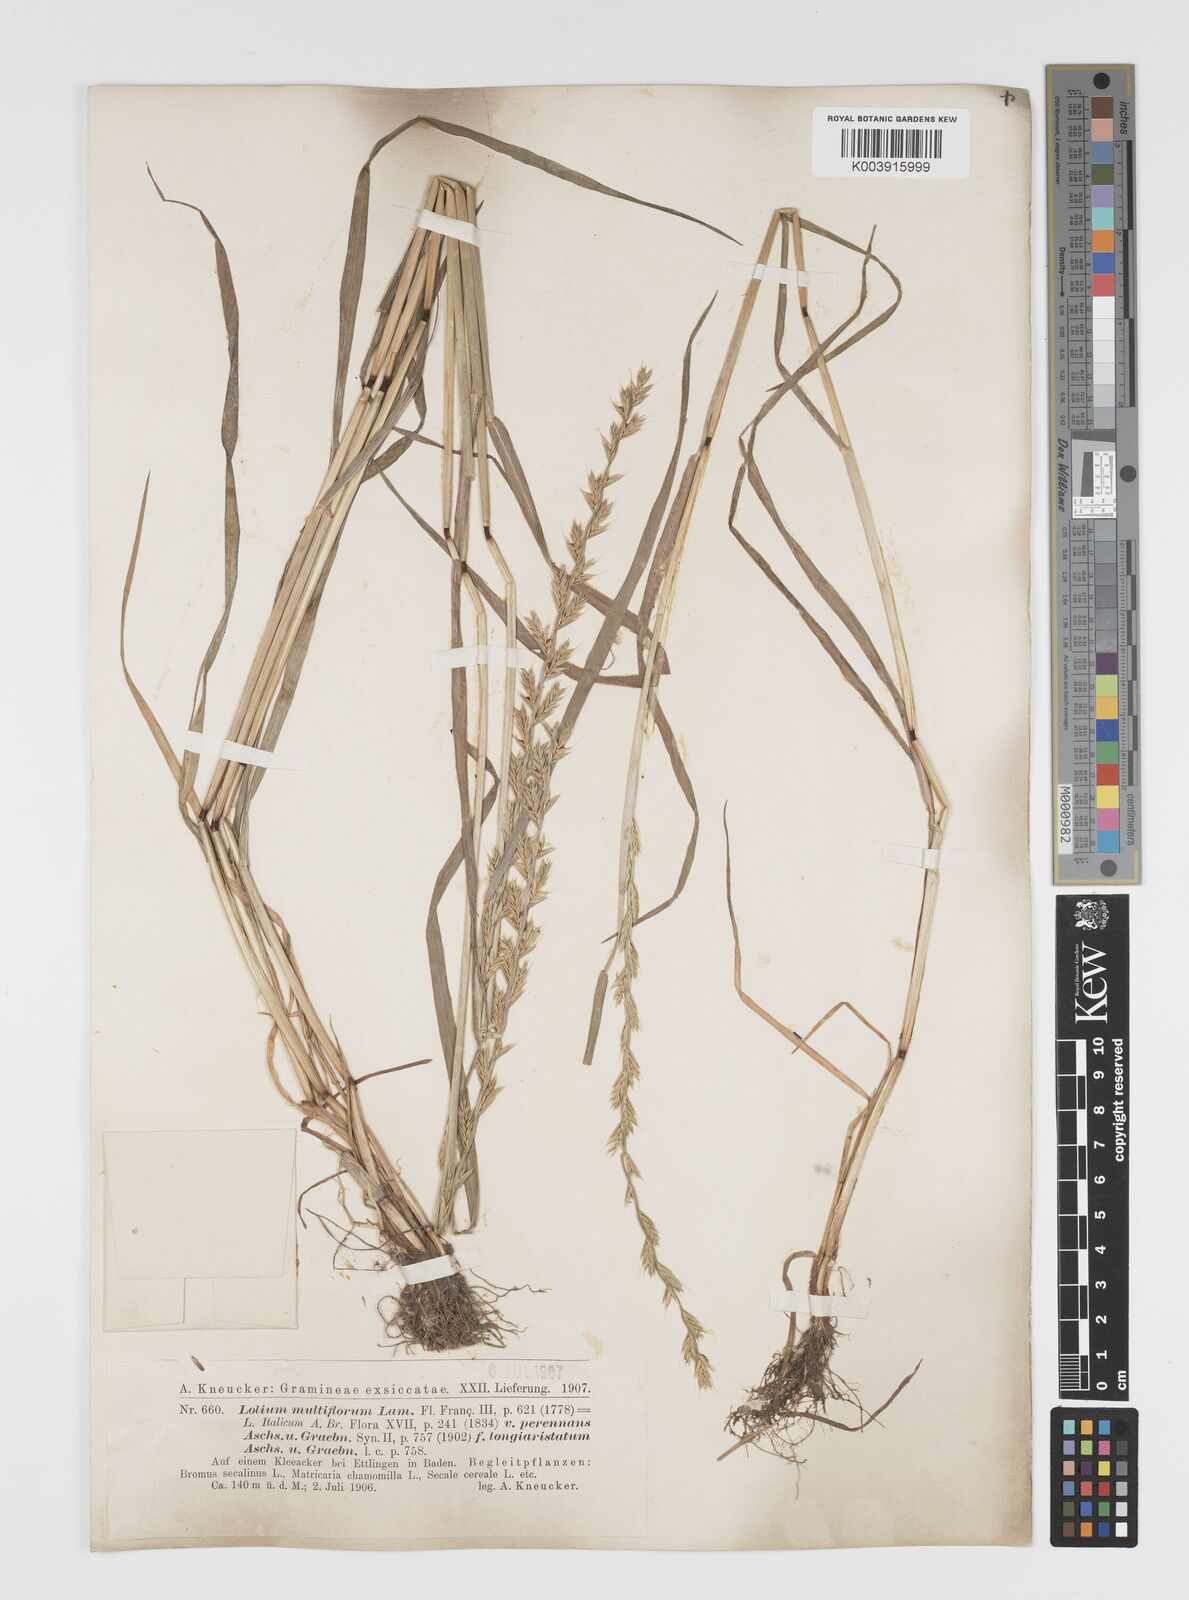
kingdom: Plantae
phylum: Tracheophyta
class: Liliopsida
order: Poales
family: Poaceae
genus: Lolium
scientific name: Lolium multiflorum
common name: Annual ryegrass
